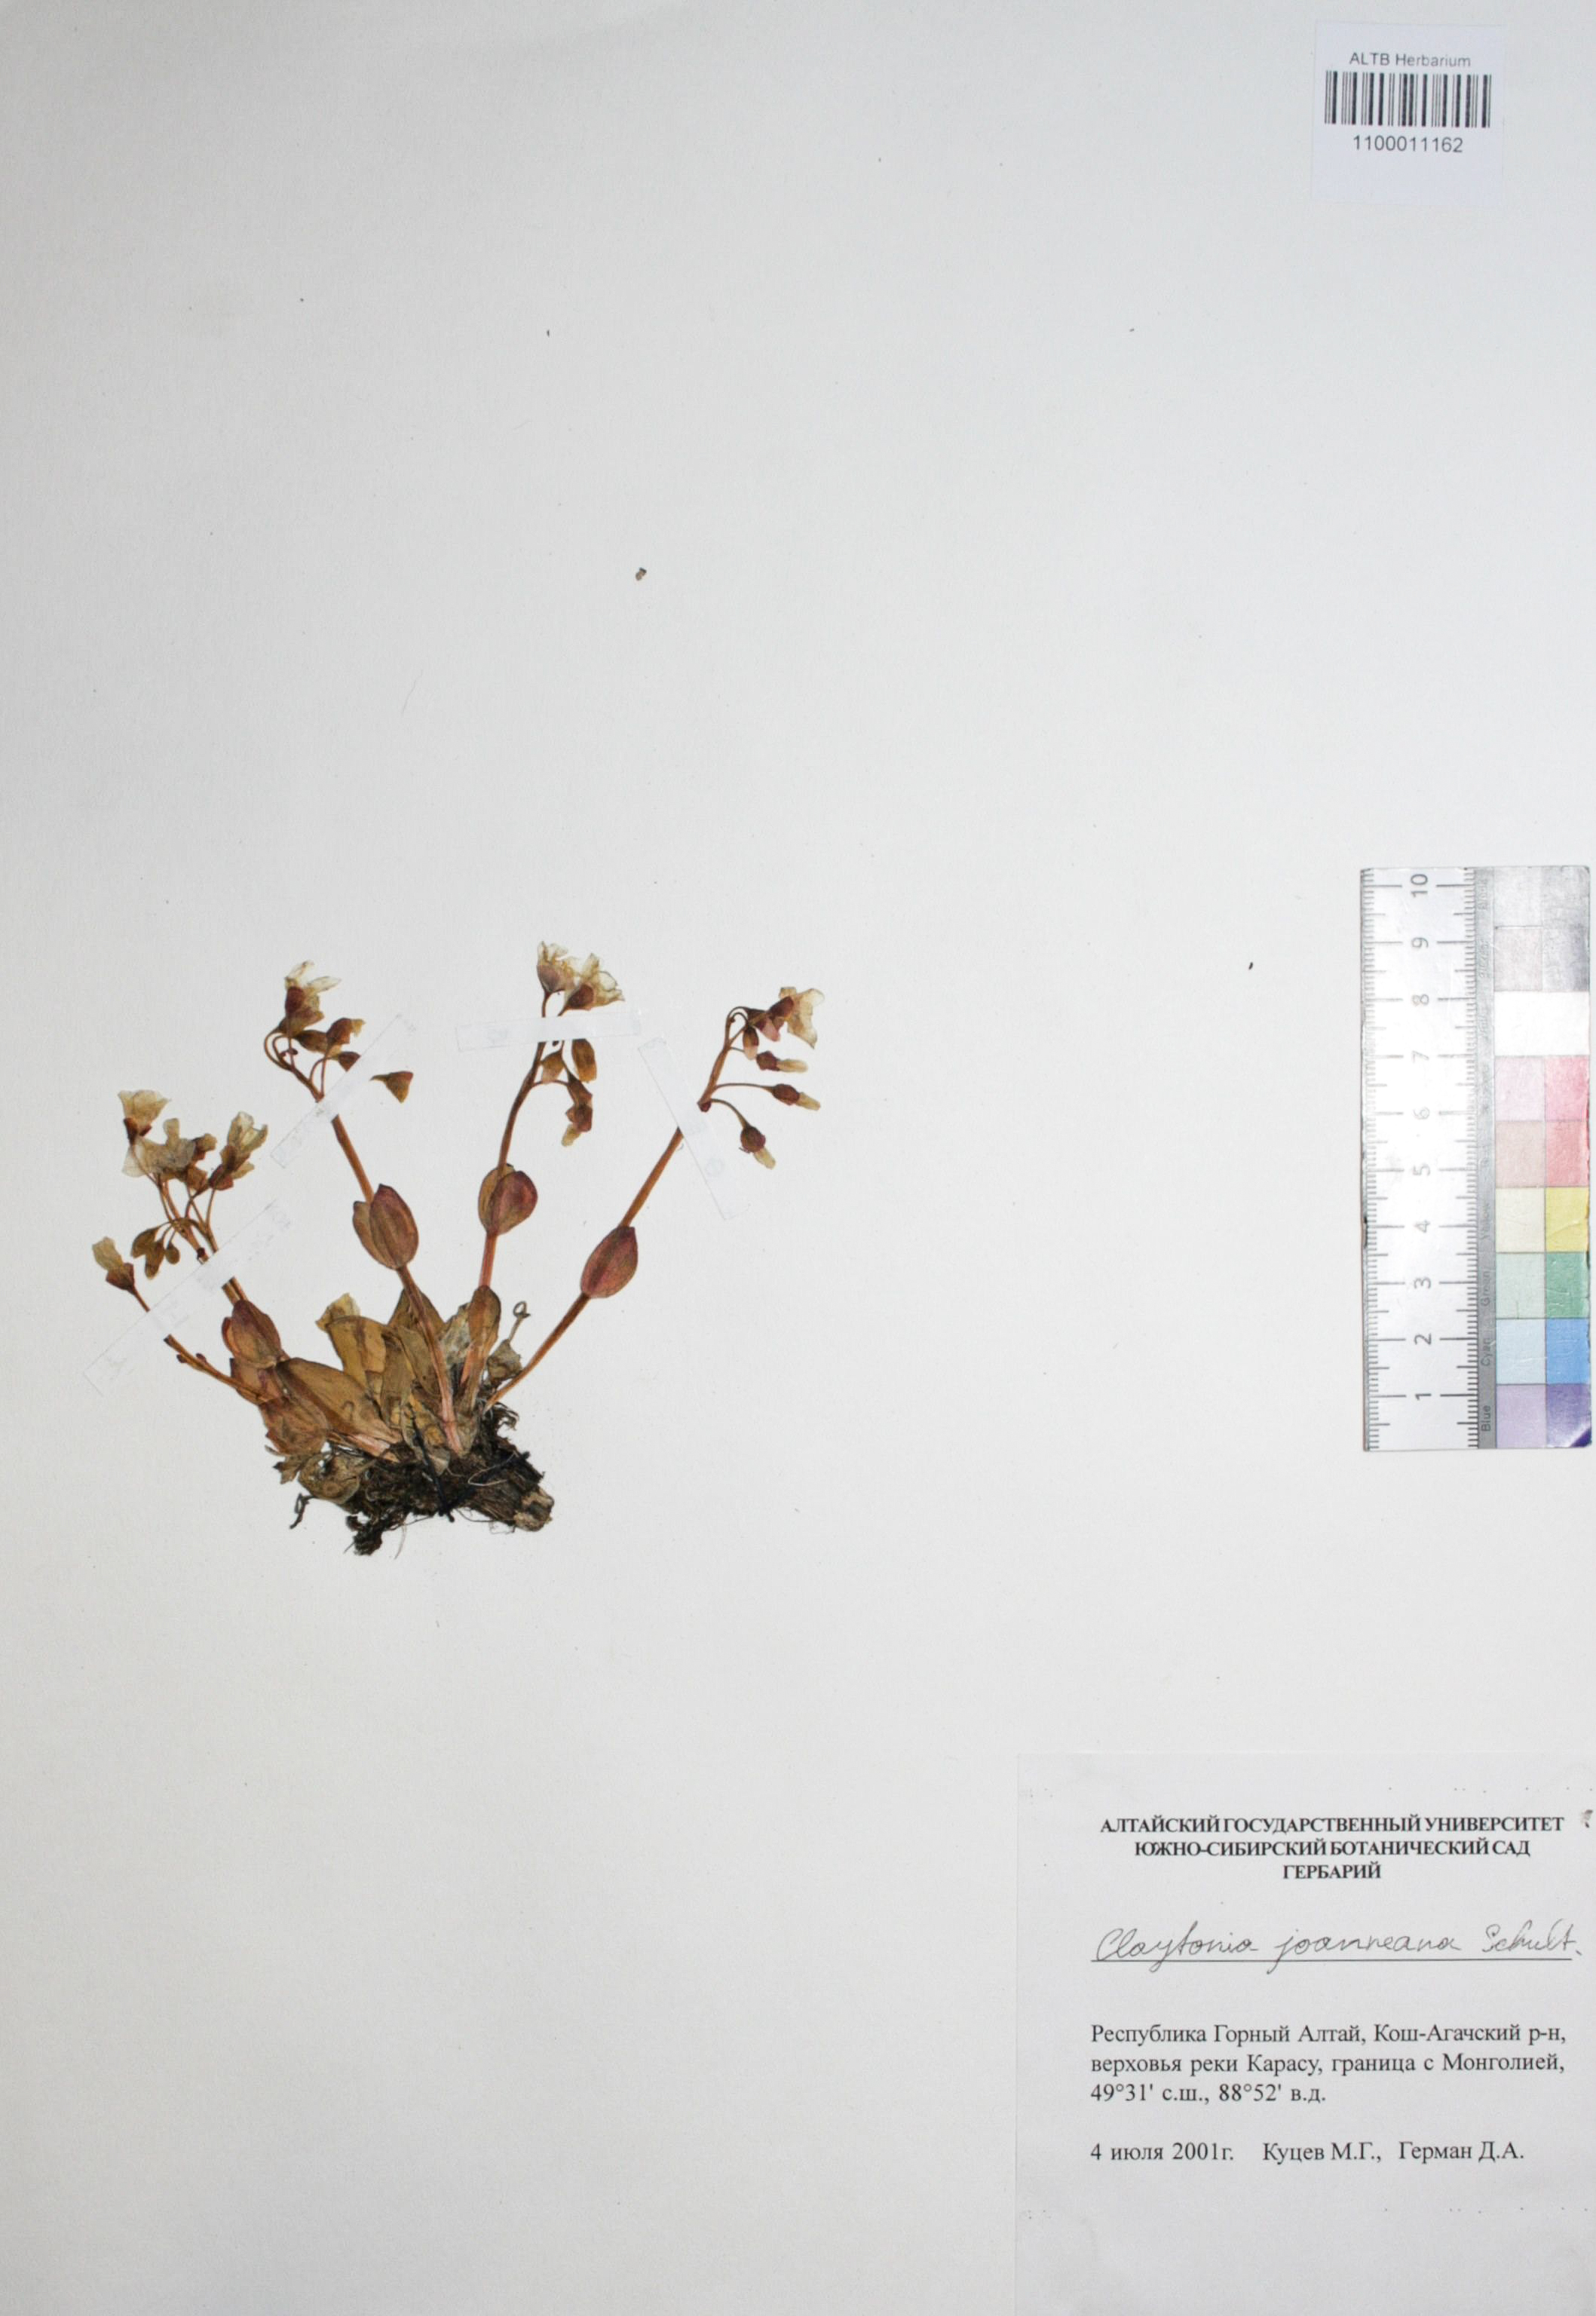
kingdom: Plantae
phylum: Tracheophyta
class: Magnoliopsida
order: Caryophyllales
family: Montiaceae
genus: Claytonia
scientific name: Claytonia joanneana
